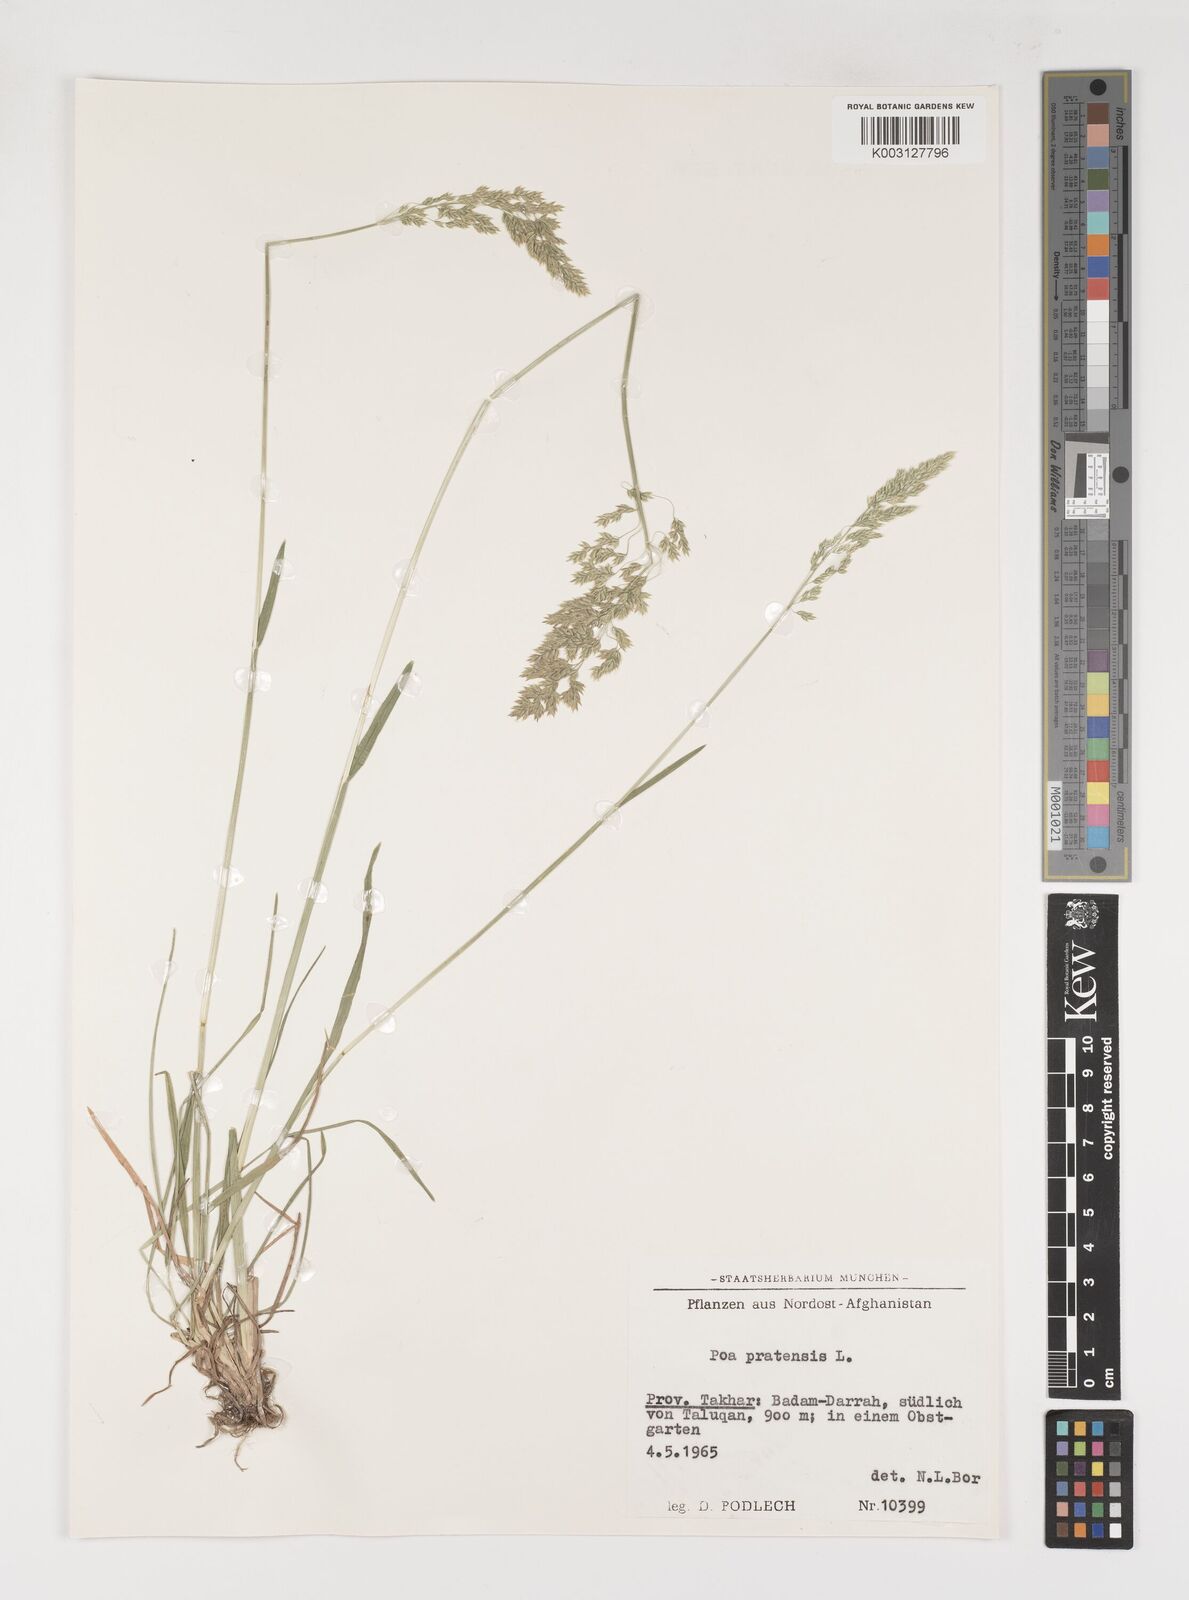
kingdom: Plantae
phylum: Tracheophyta
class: Liliopsida
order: Poales
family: Poaceae
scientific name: Poaceae
